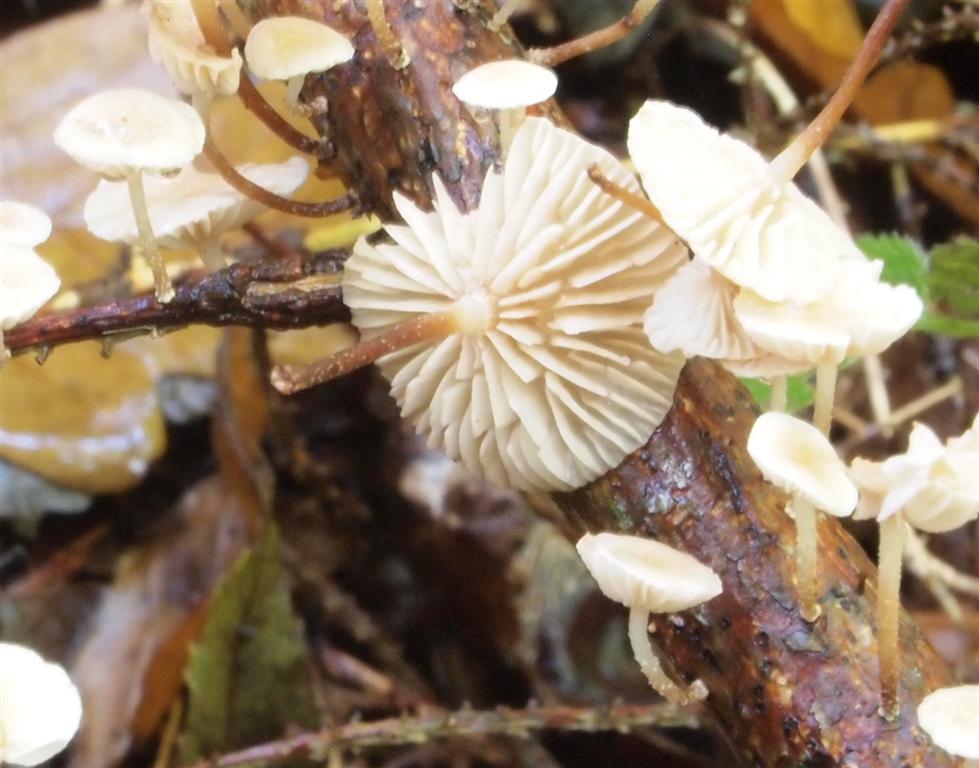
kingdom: Fungi
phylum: Basidiomycota
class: Agaricomycetes
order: Agaricales
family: Omphalotaceae
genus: Collybiopsis
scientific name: Collybiopsis ramealis
